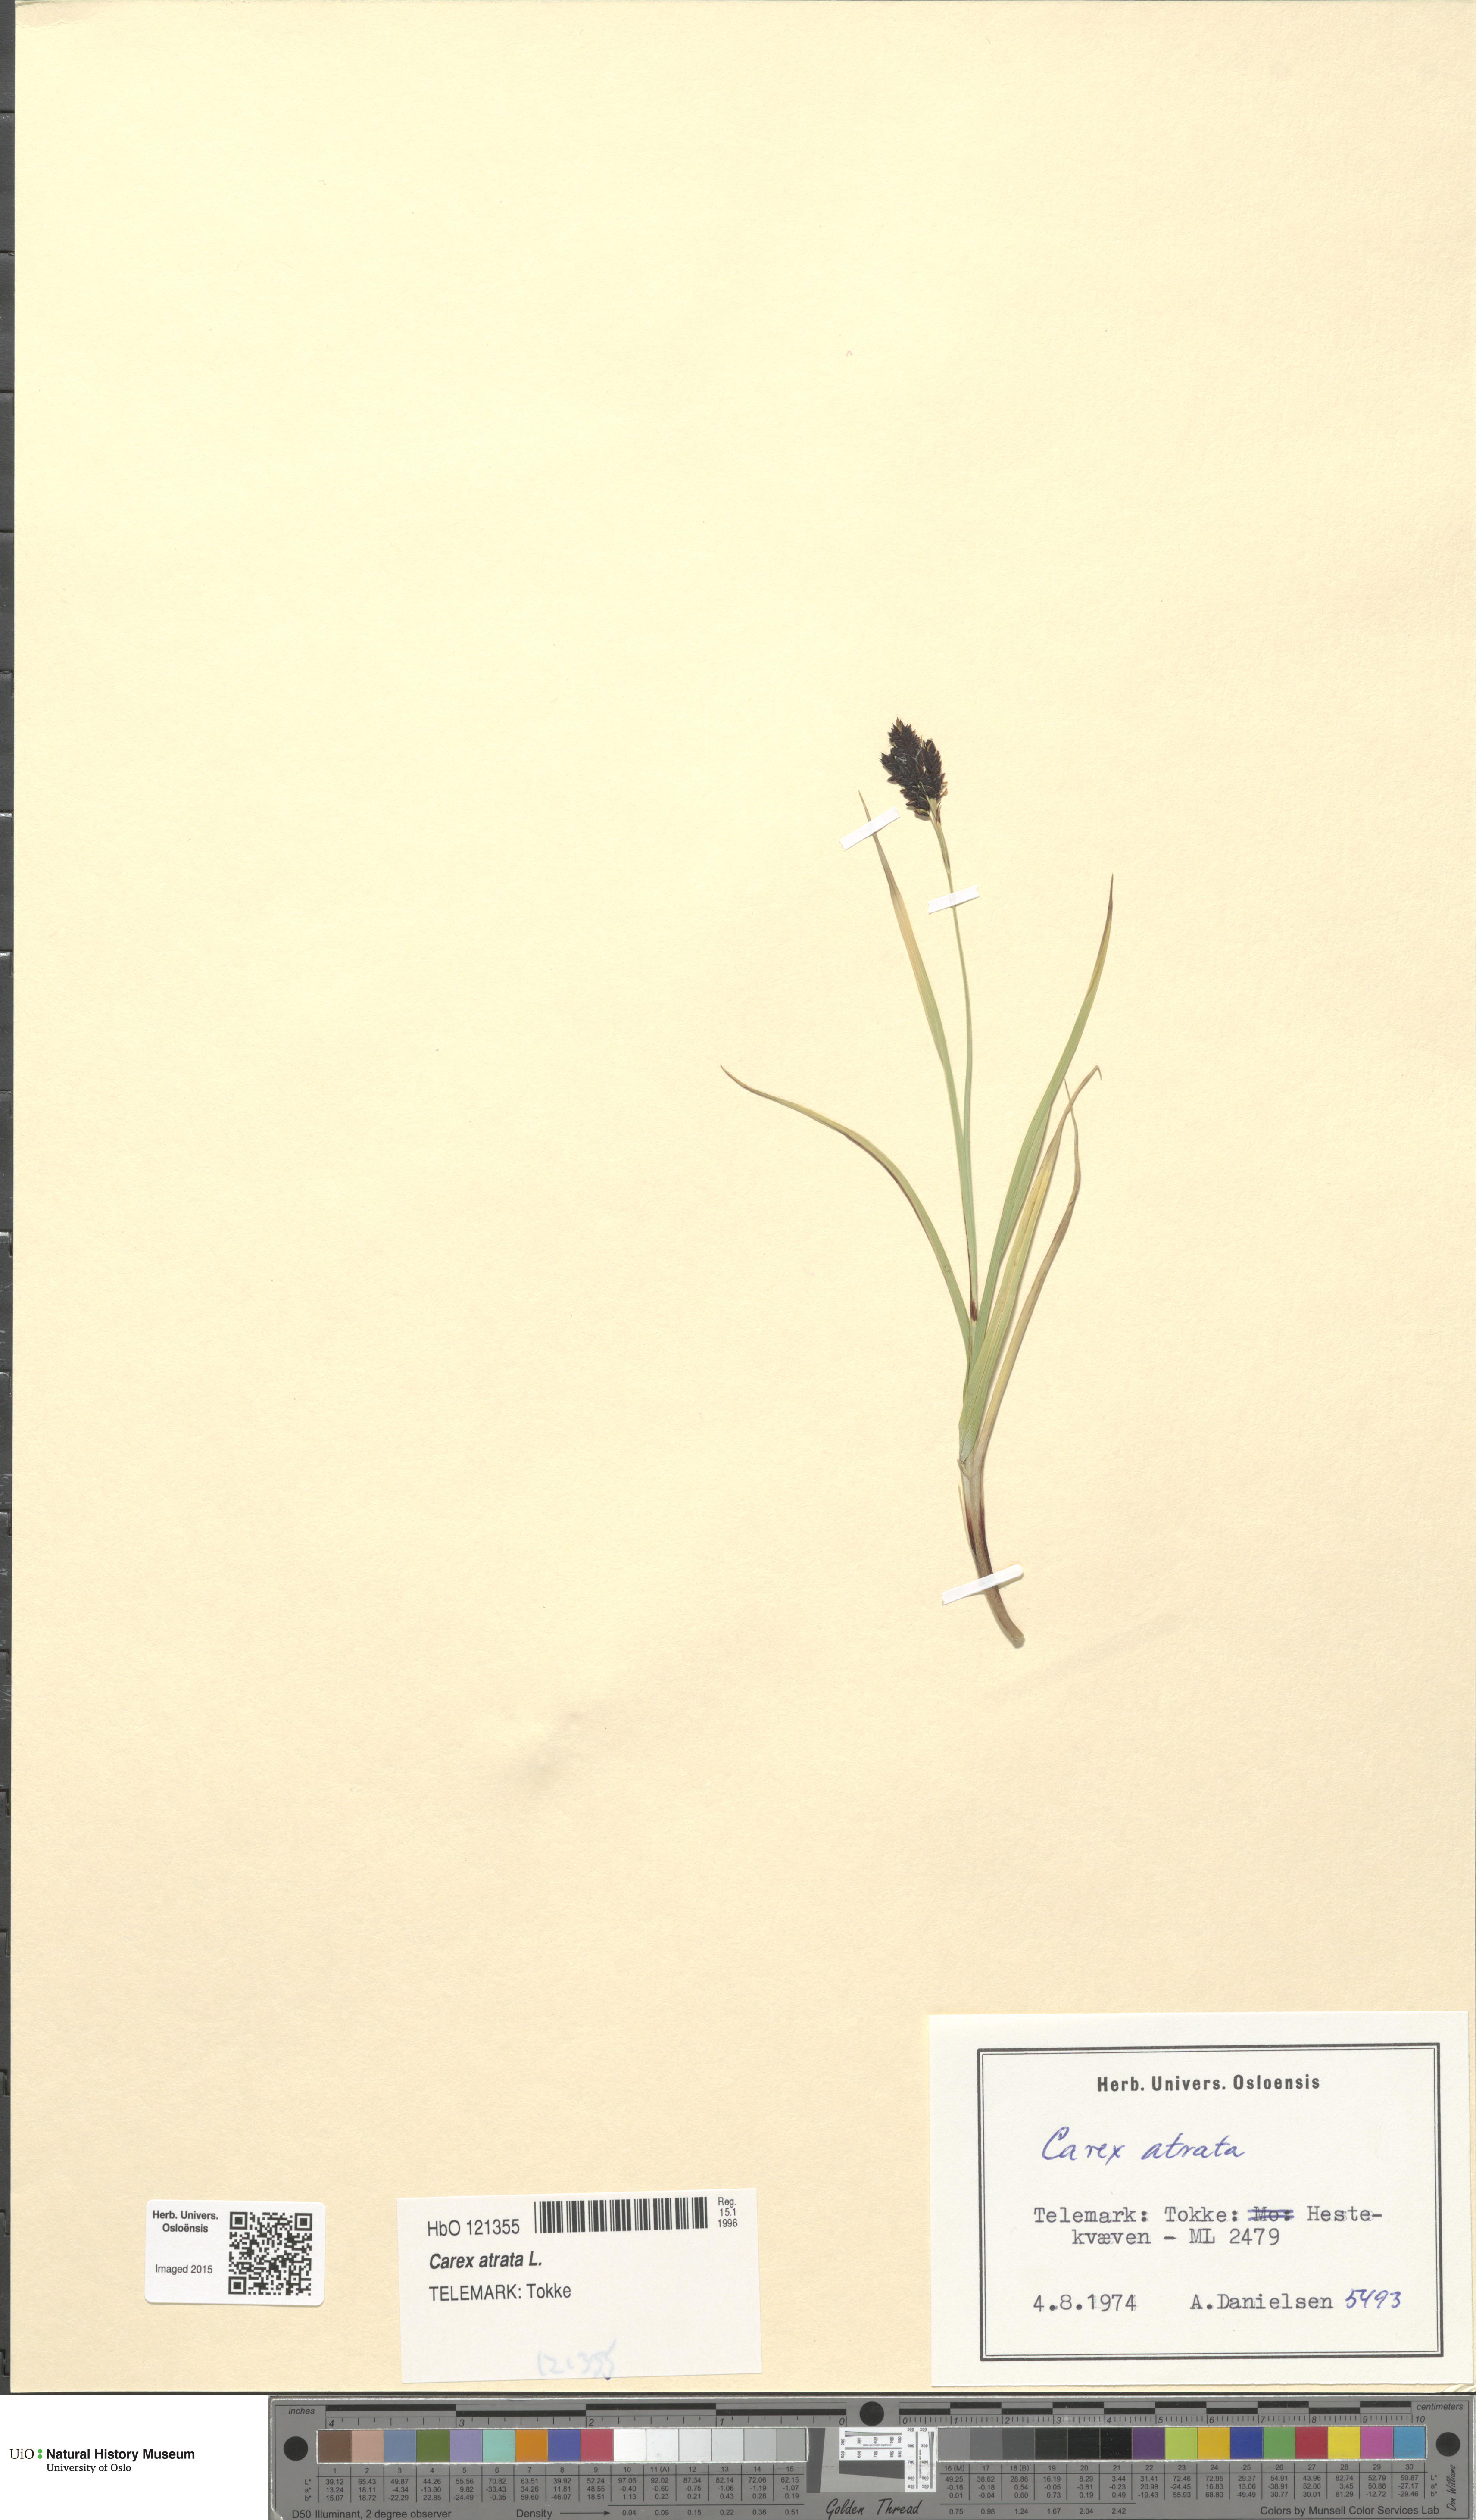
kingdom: Plantae
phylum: Tracheophyta
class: Liliopsida
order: Poales
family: Cyperaceae
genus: Carex
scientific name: Carex atrata
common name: Black alpine sedge
